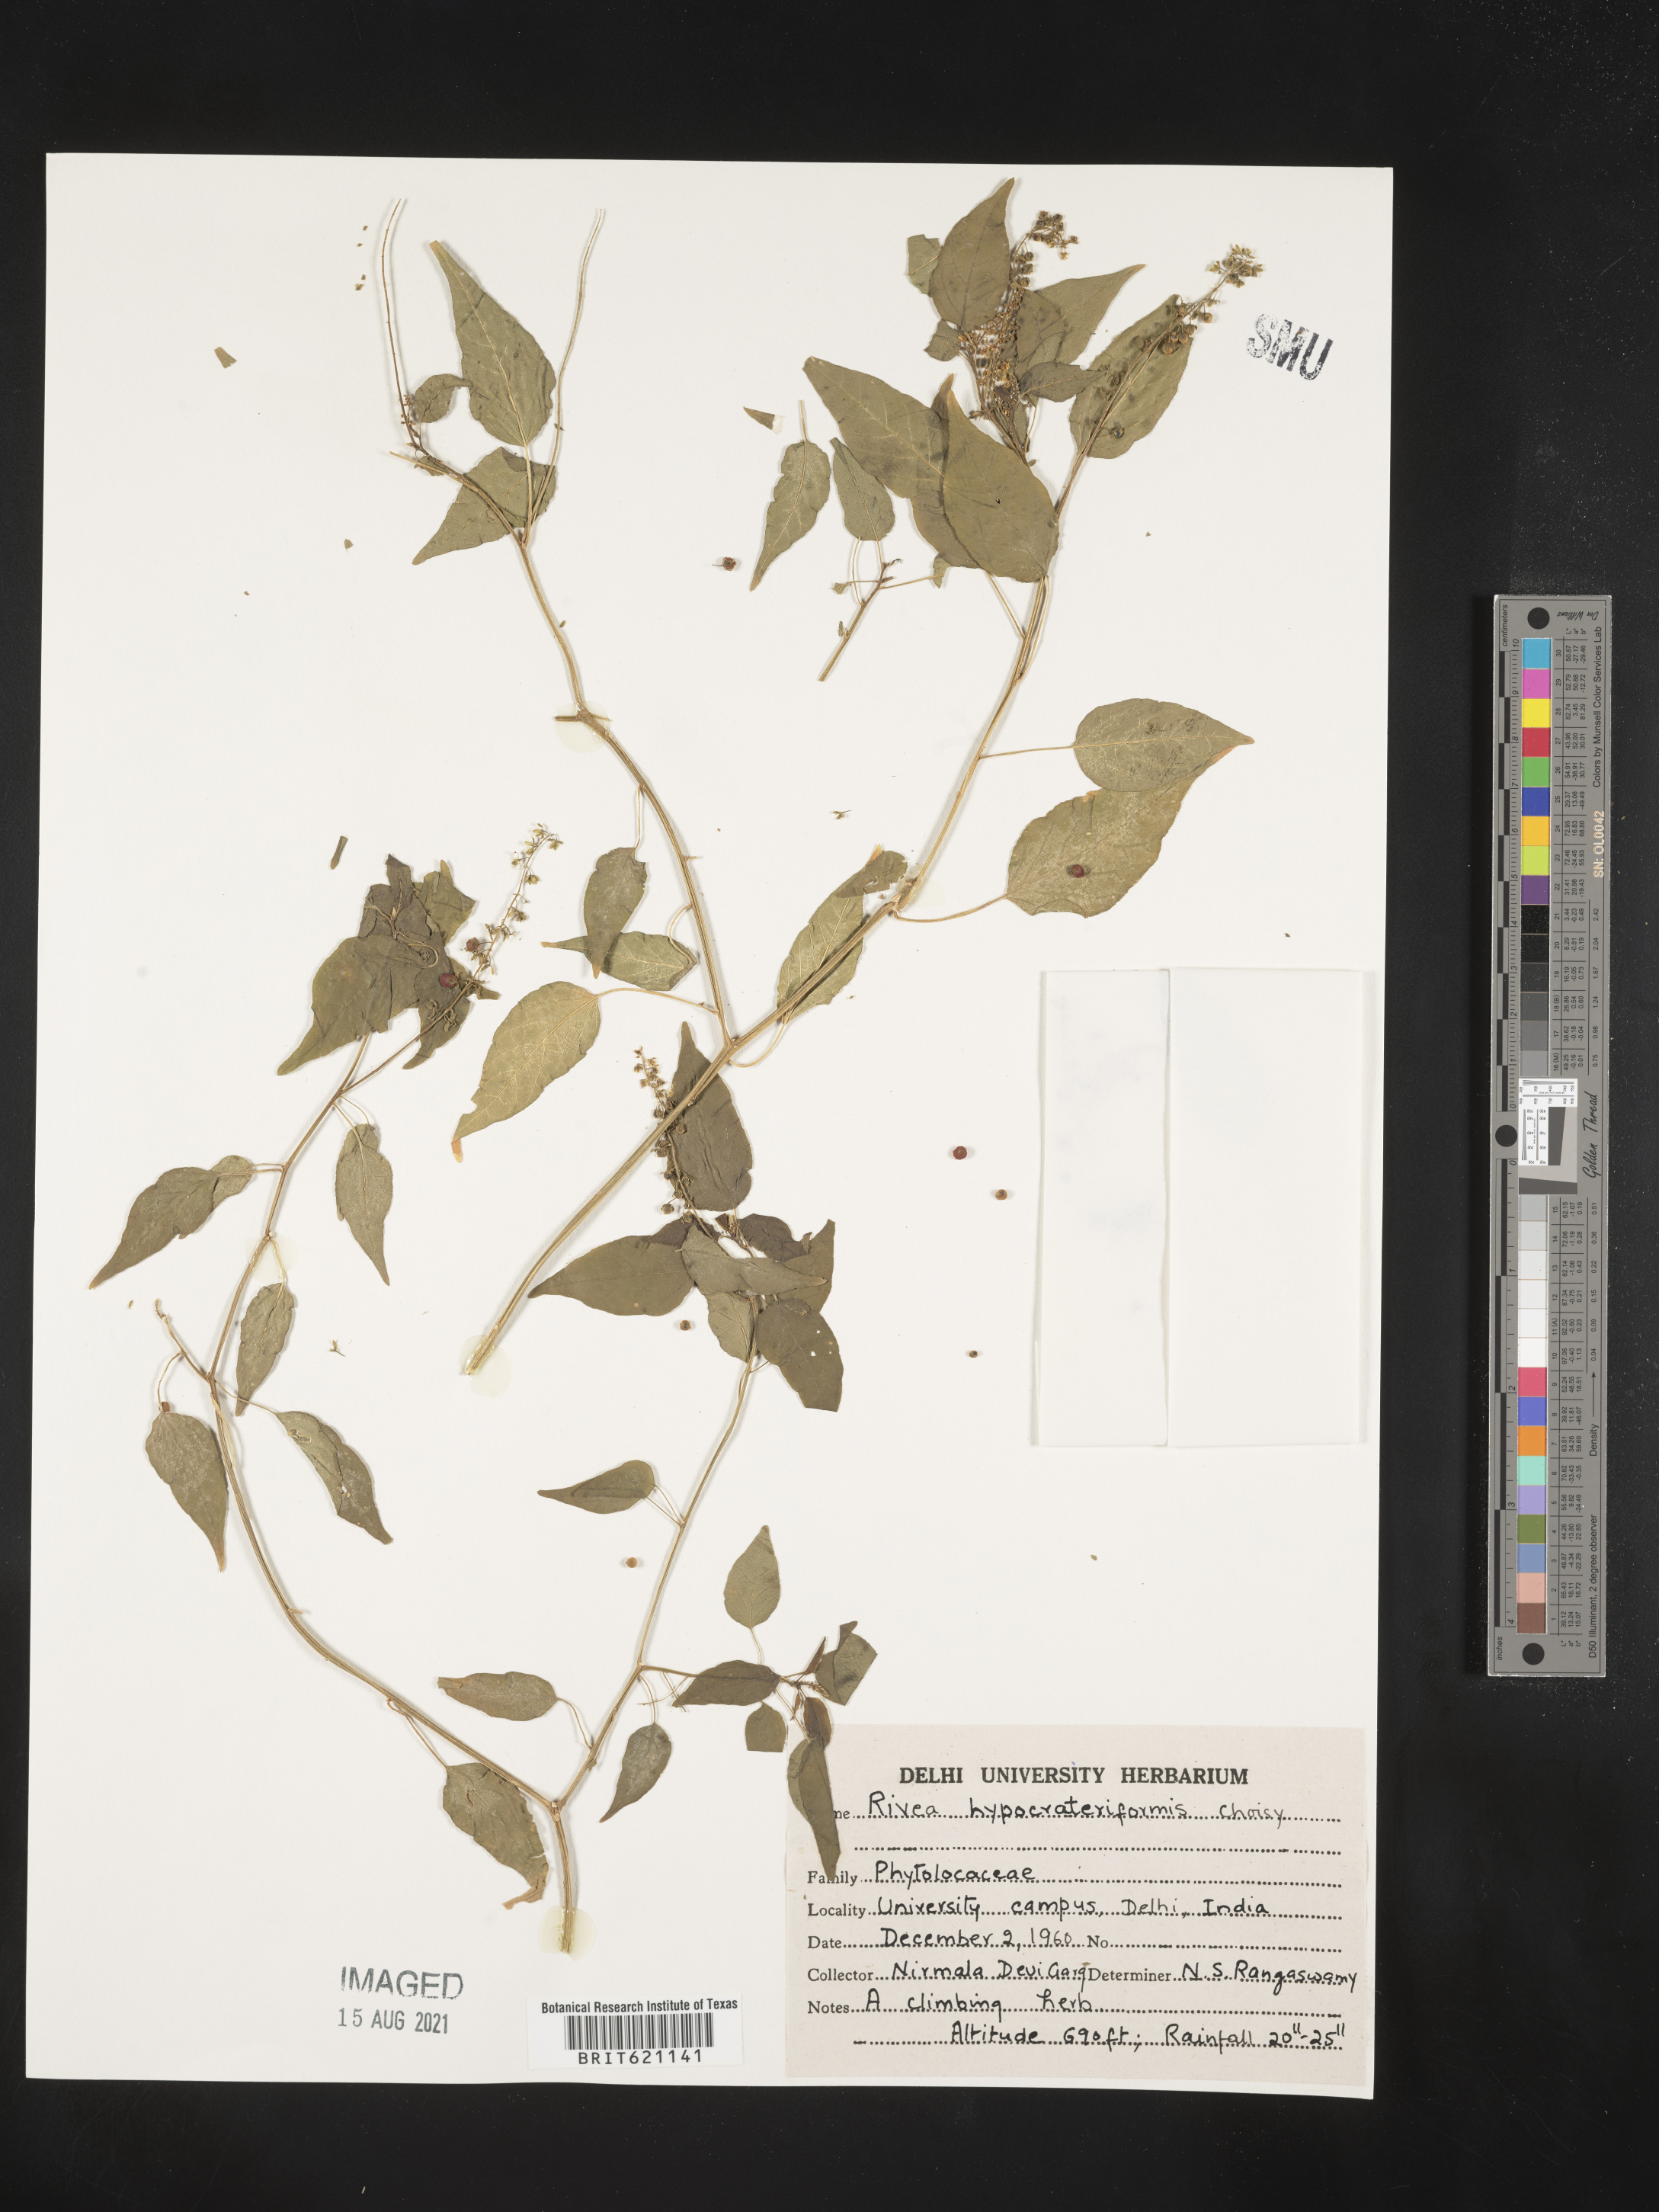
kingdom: Plantae
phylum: Tracheophyta
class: Magnoliopsida
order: Solanales
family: Convolvulaceae
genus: Rivea
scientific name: Rivea hypocrateriformis
